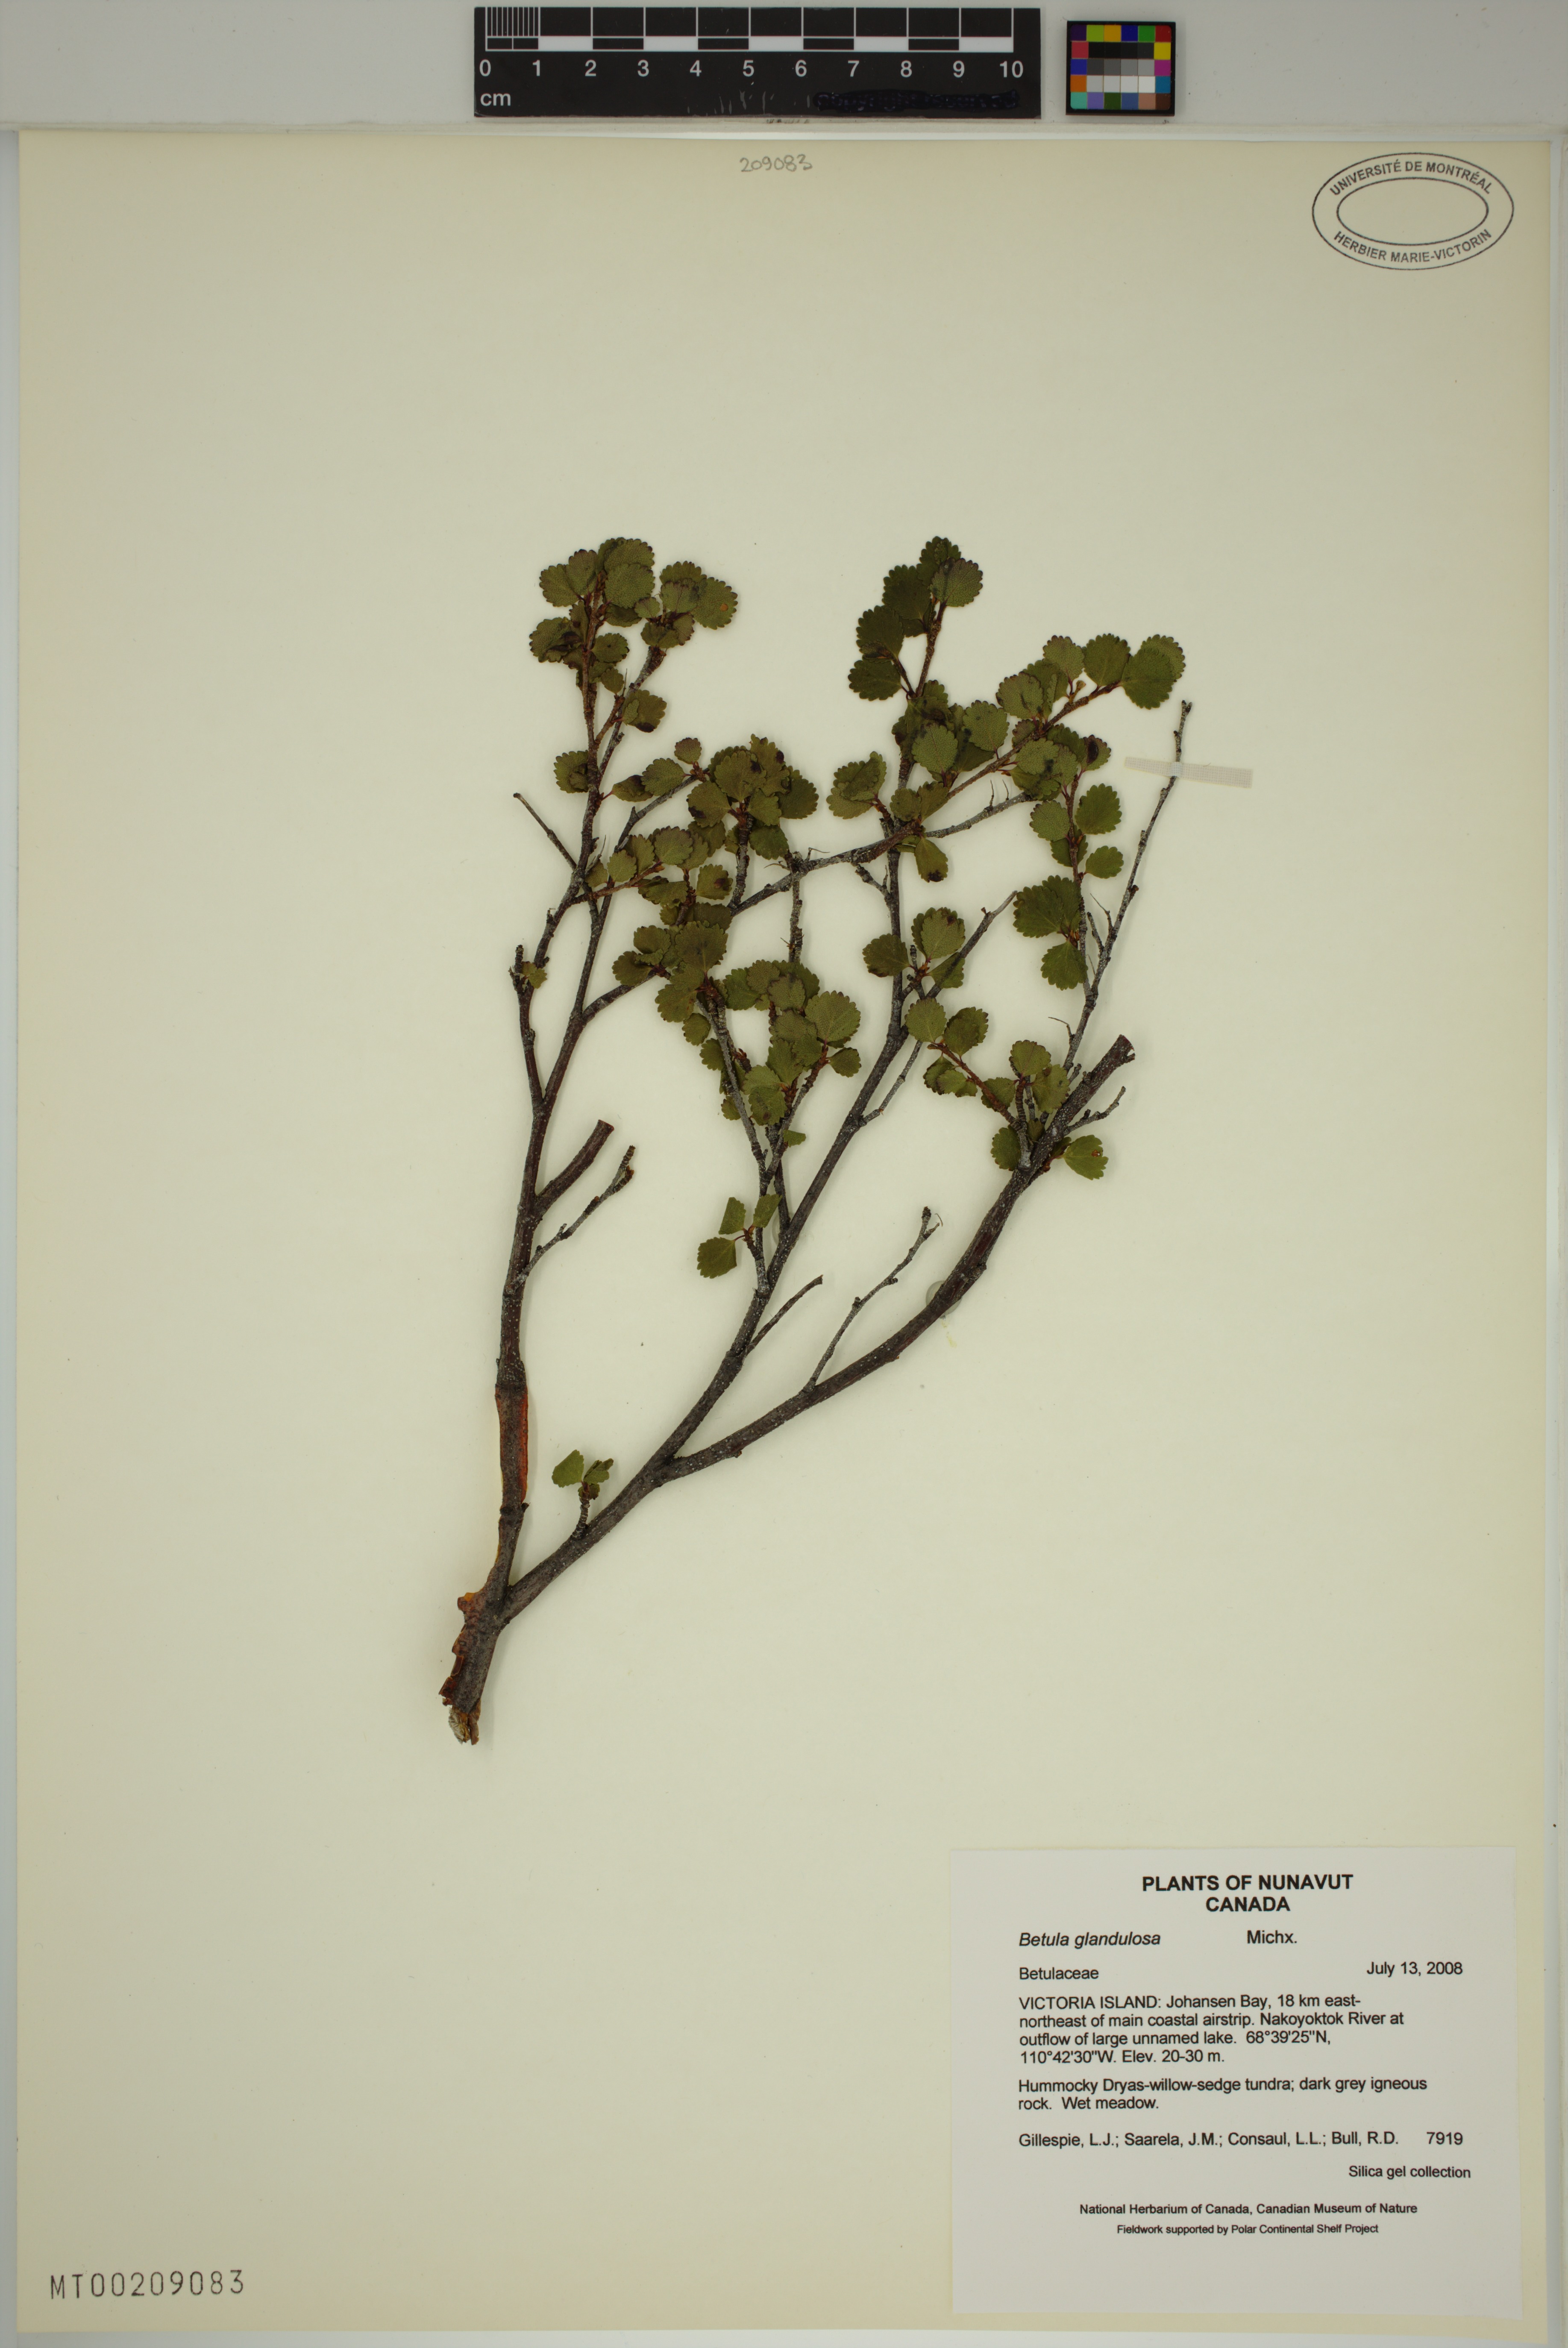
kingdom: Plantae
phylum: Tracheophyta
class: Magnoliopsida
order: Fagales
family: Betulaceae
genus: Betula
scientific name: Betula glandulosa
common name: Dwarf birch
